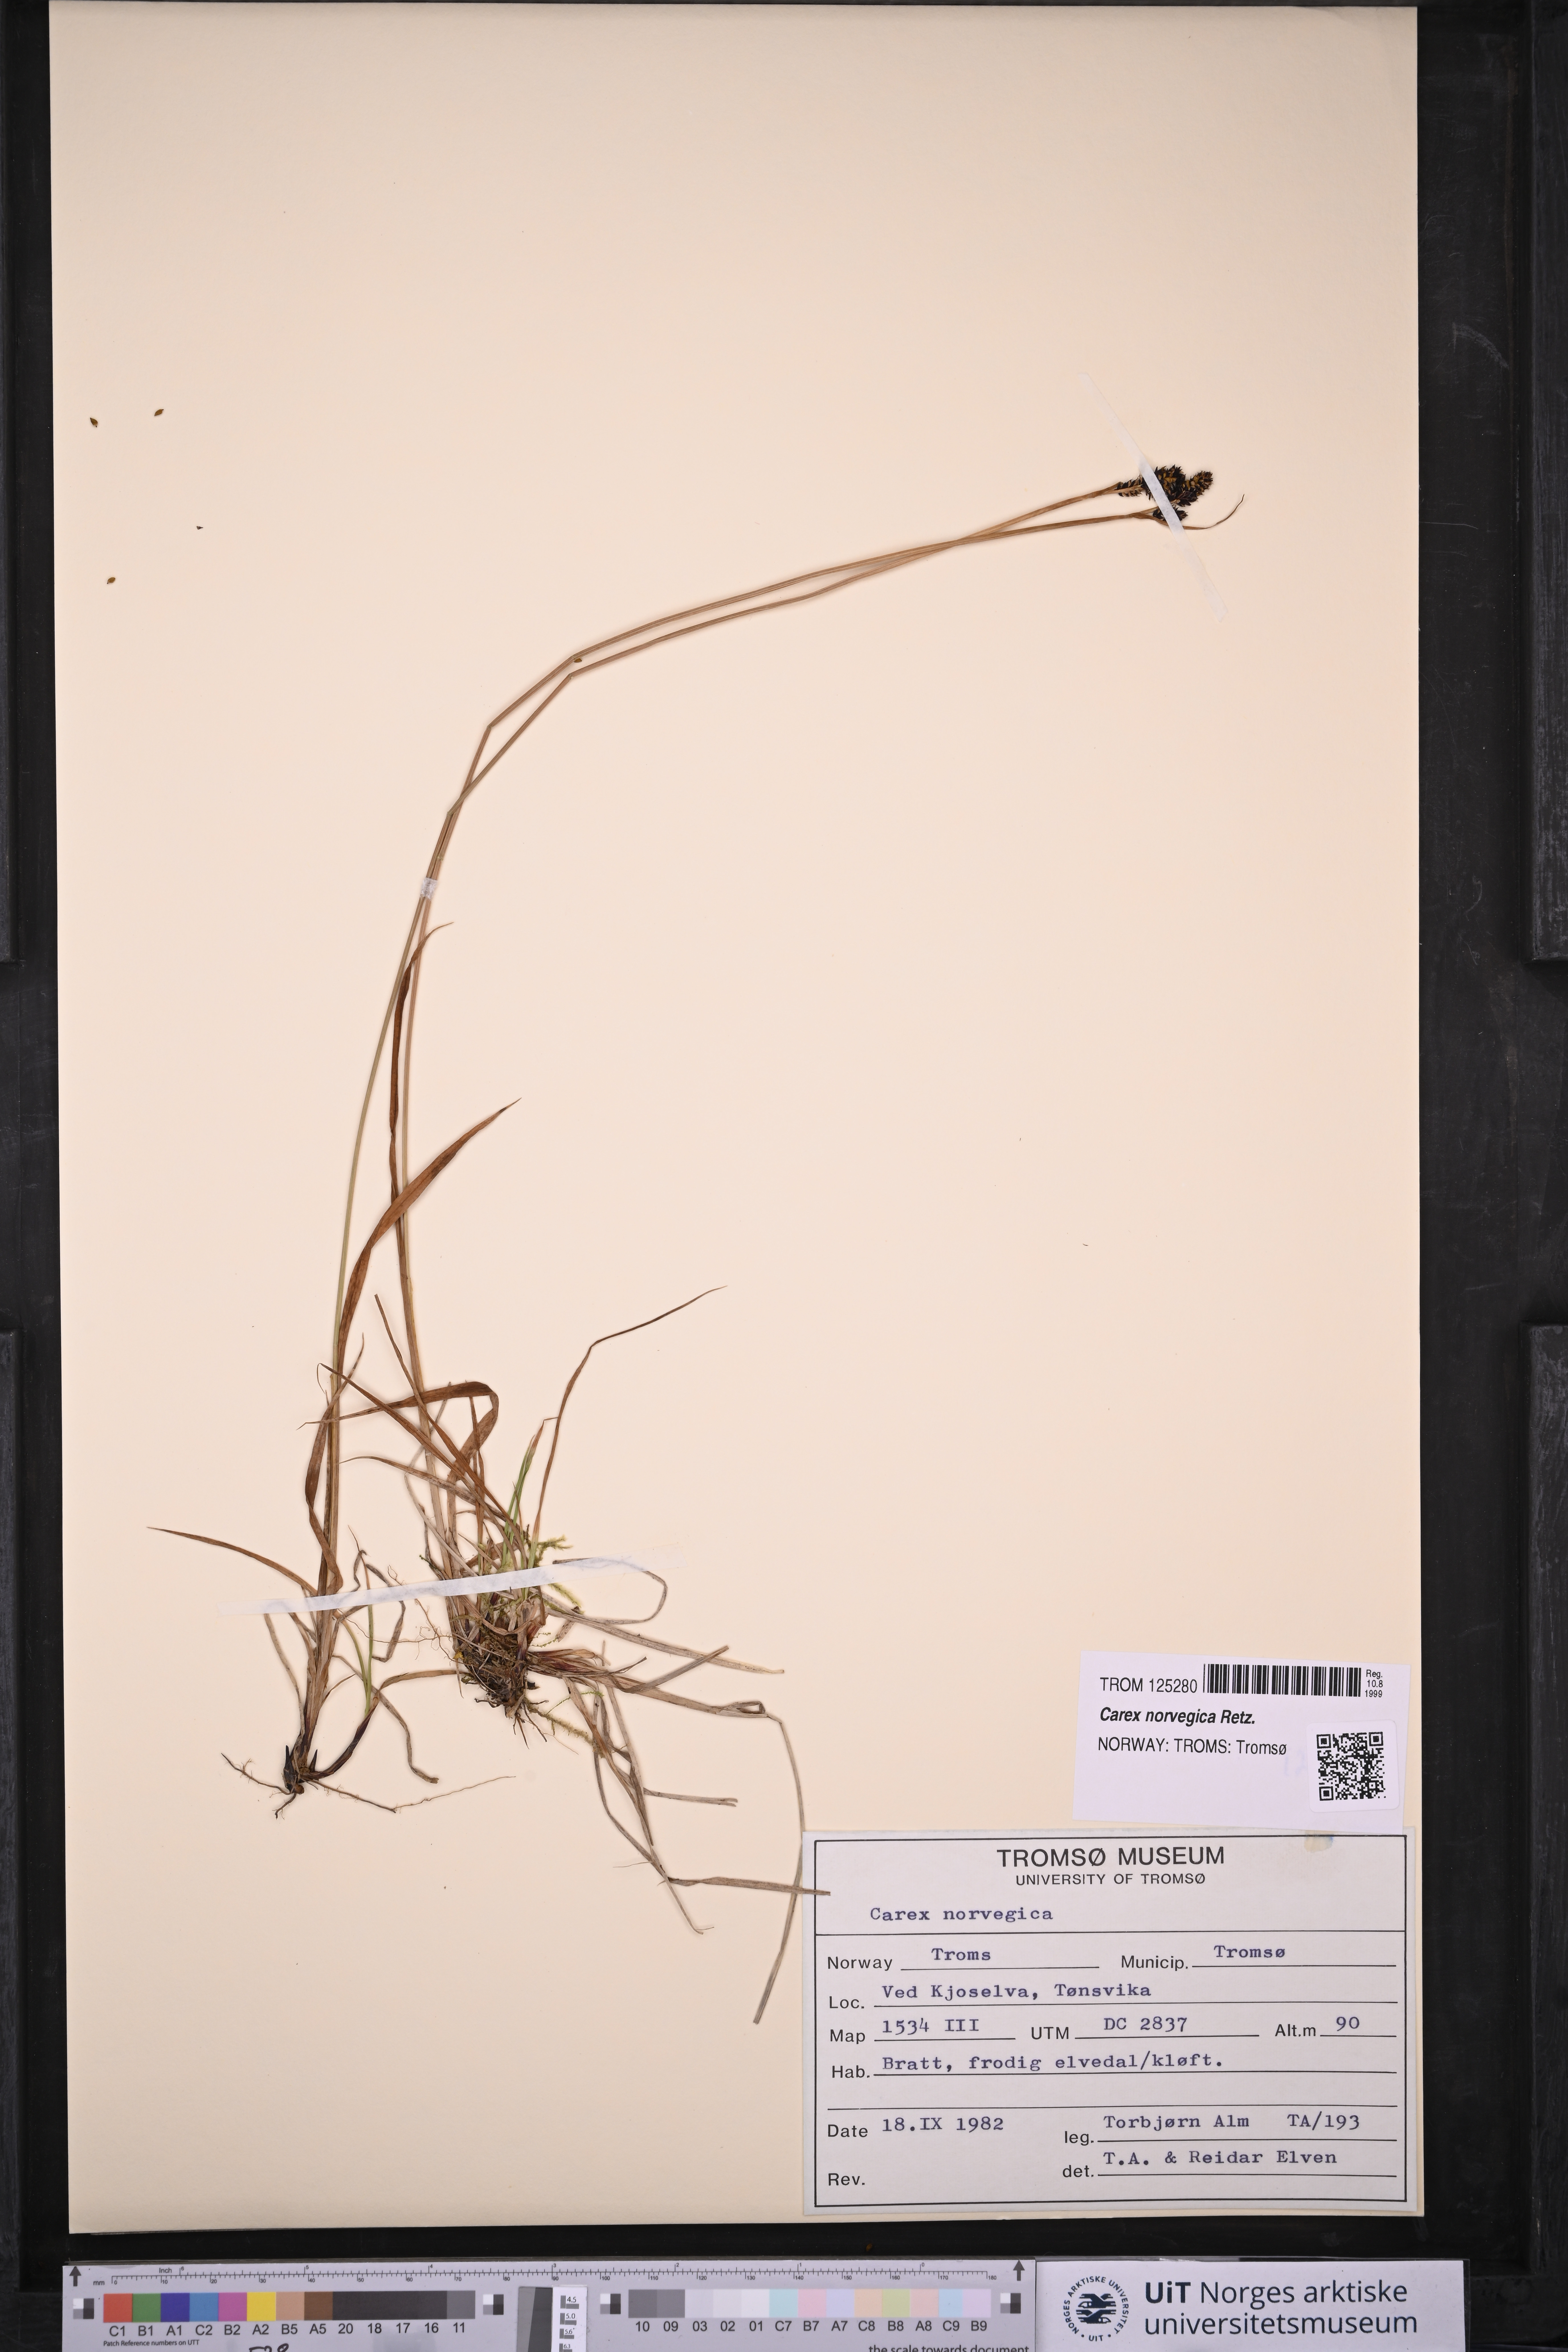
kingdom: Plantae
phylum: Tracheophyta
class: Liliopsida
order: Poales
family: Cyperaceae
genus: Carex
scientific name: Carex norvegica
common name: Close-headed alpine-sedge
